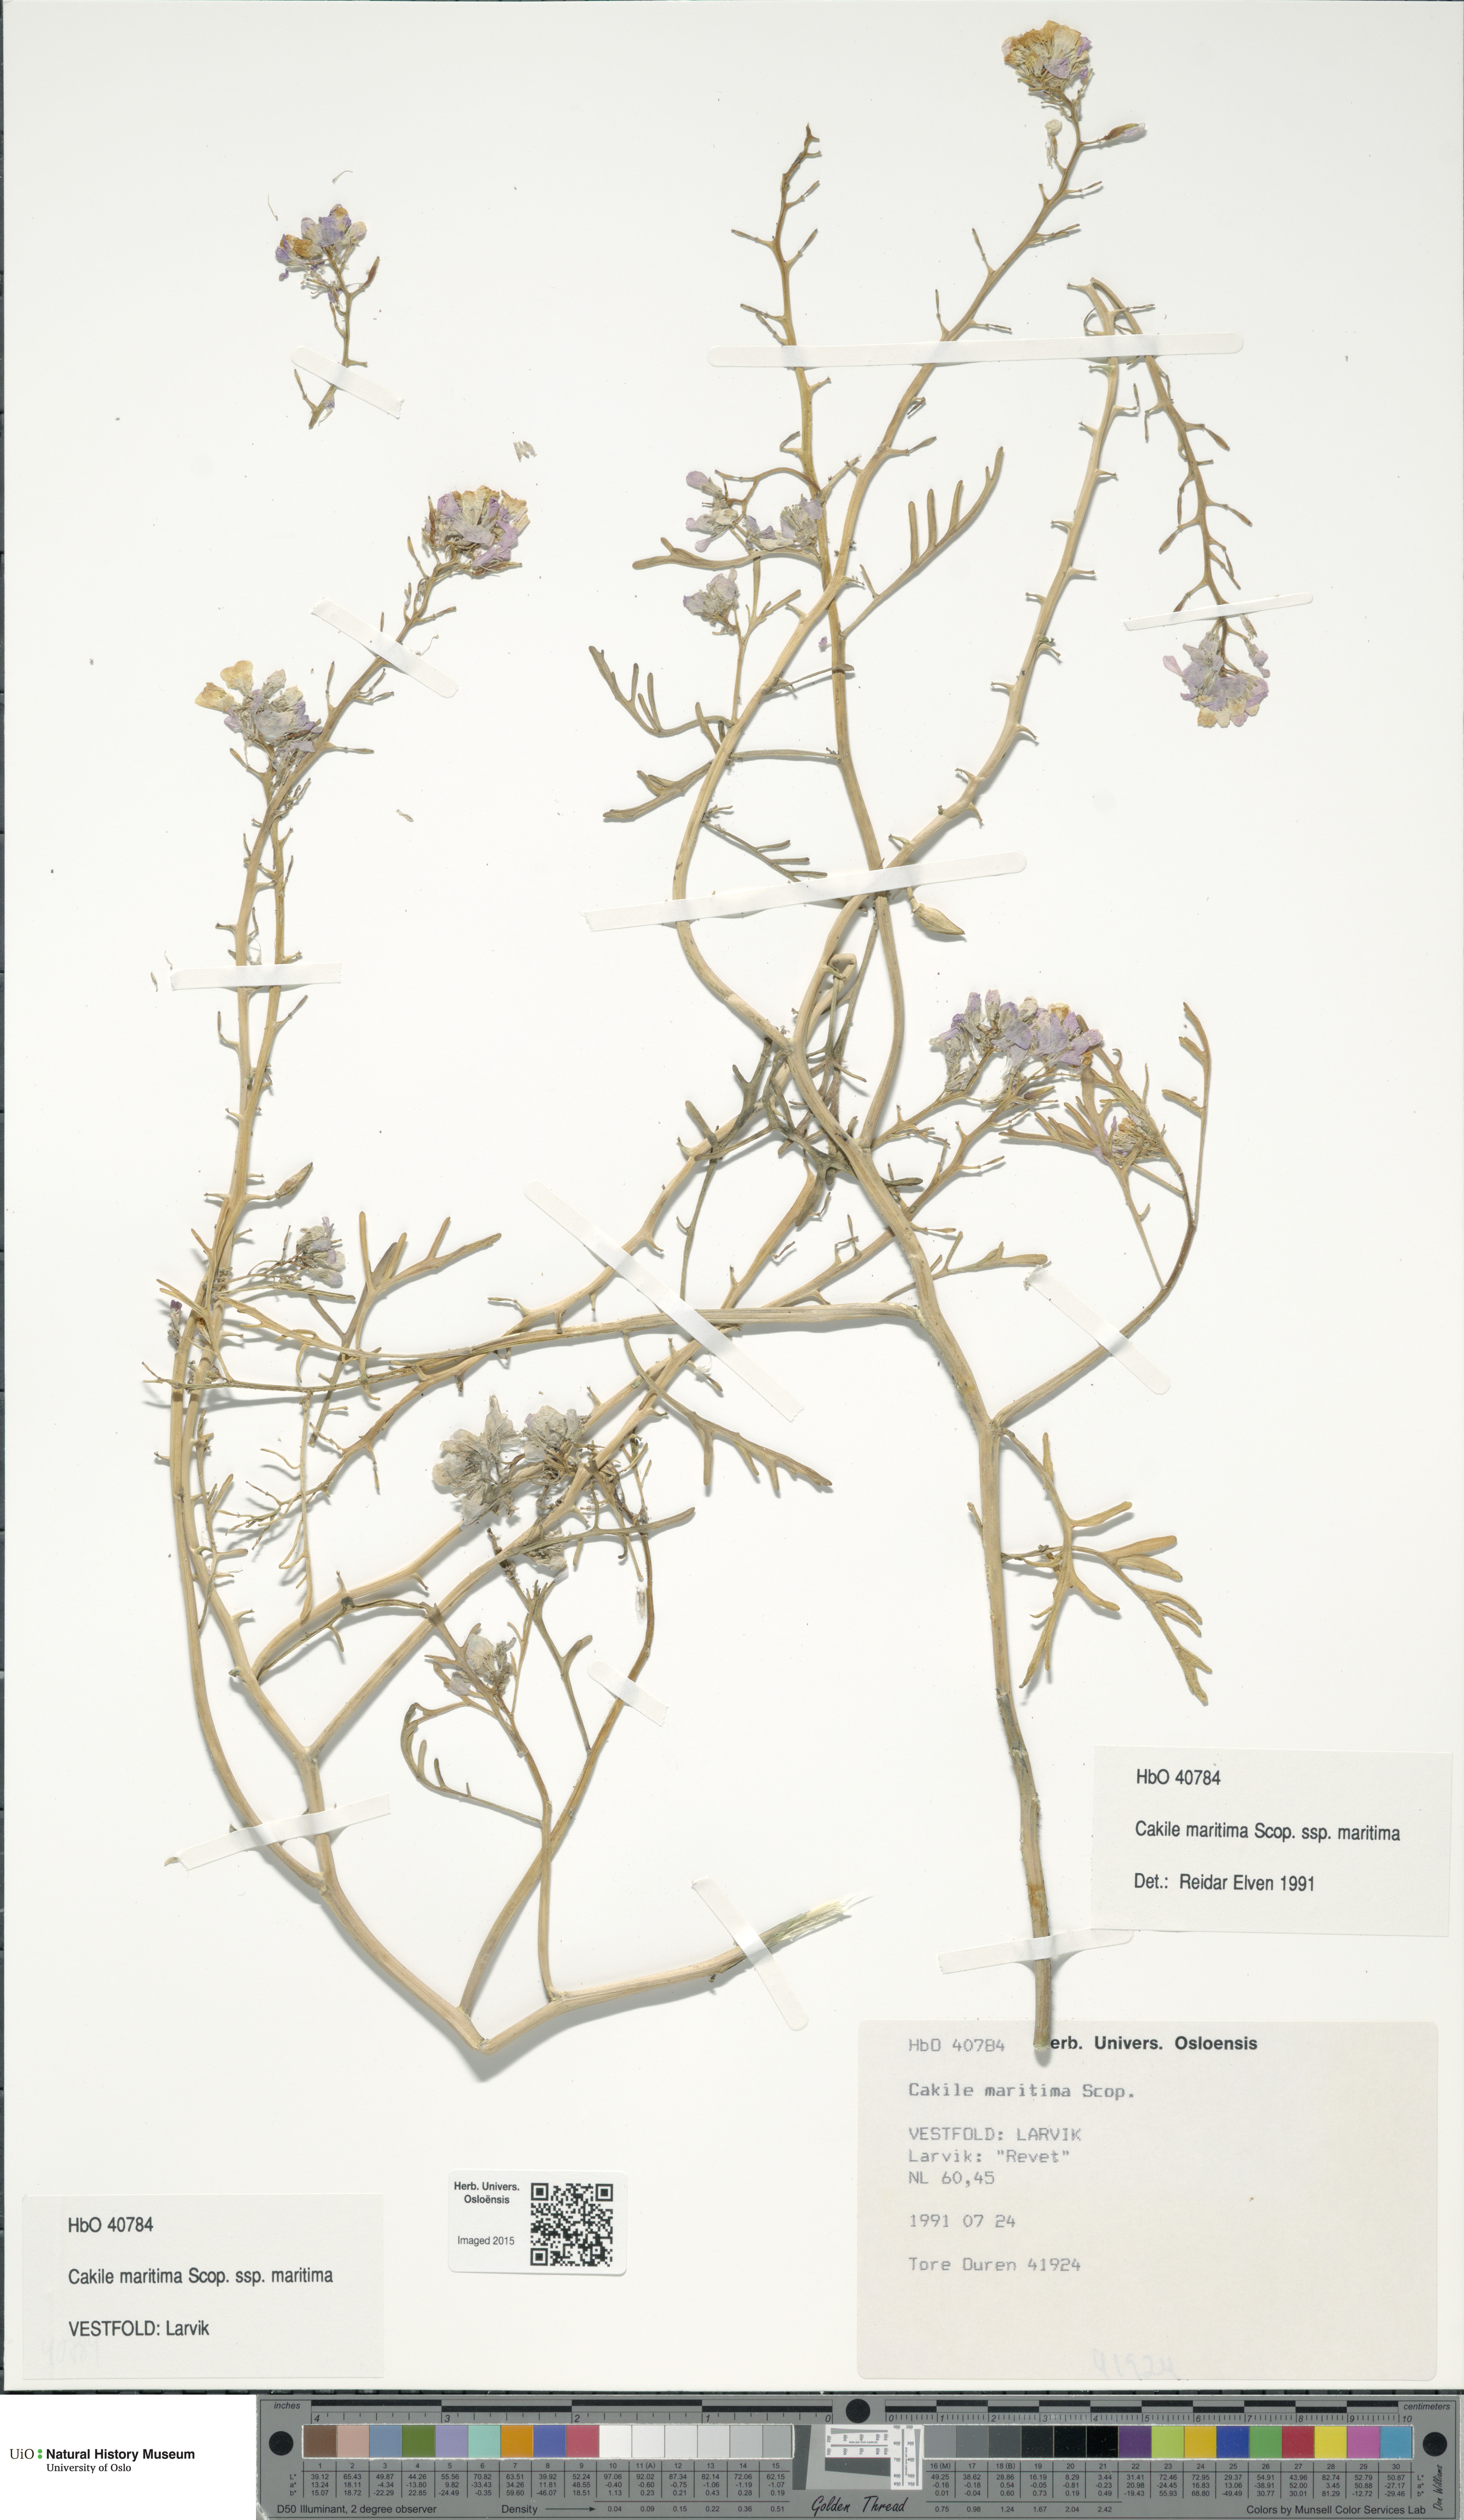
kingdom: Plantae
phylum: Tracheophyta
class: Magnoliopsida
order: Brassicales
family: Brassicaceae
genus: Cakile
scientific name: Cakile maritima
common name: Sea rocket
